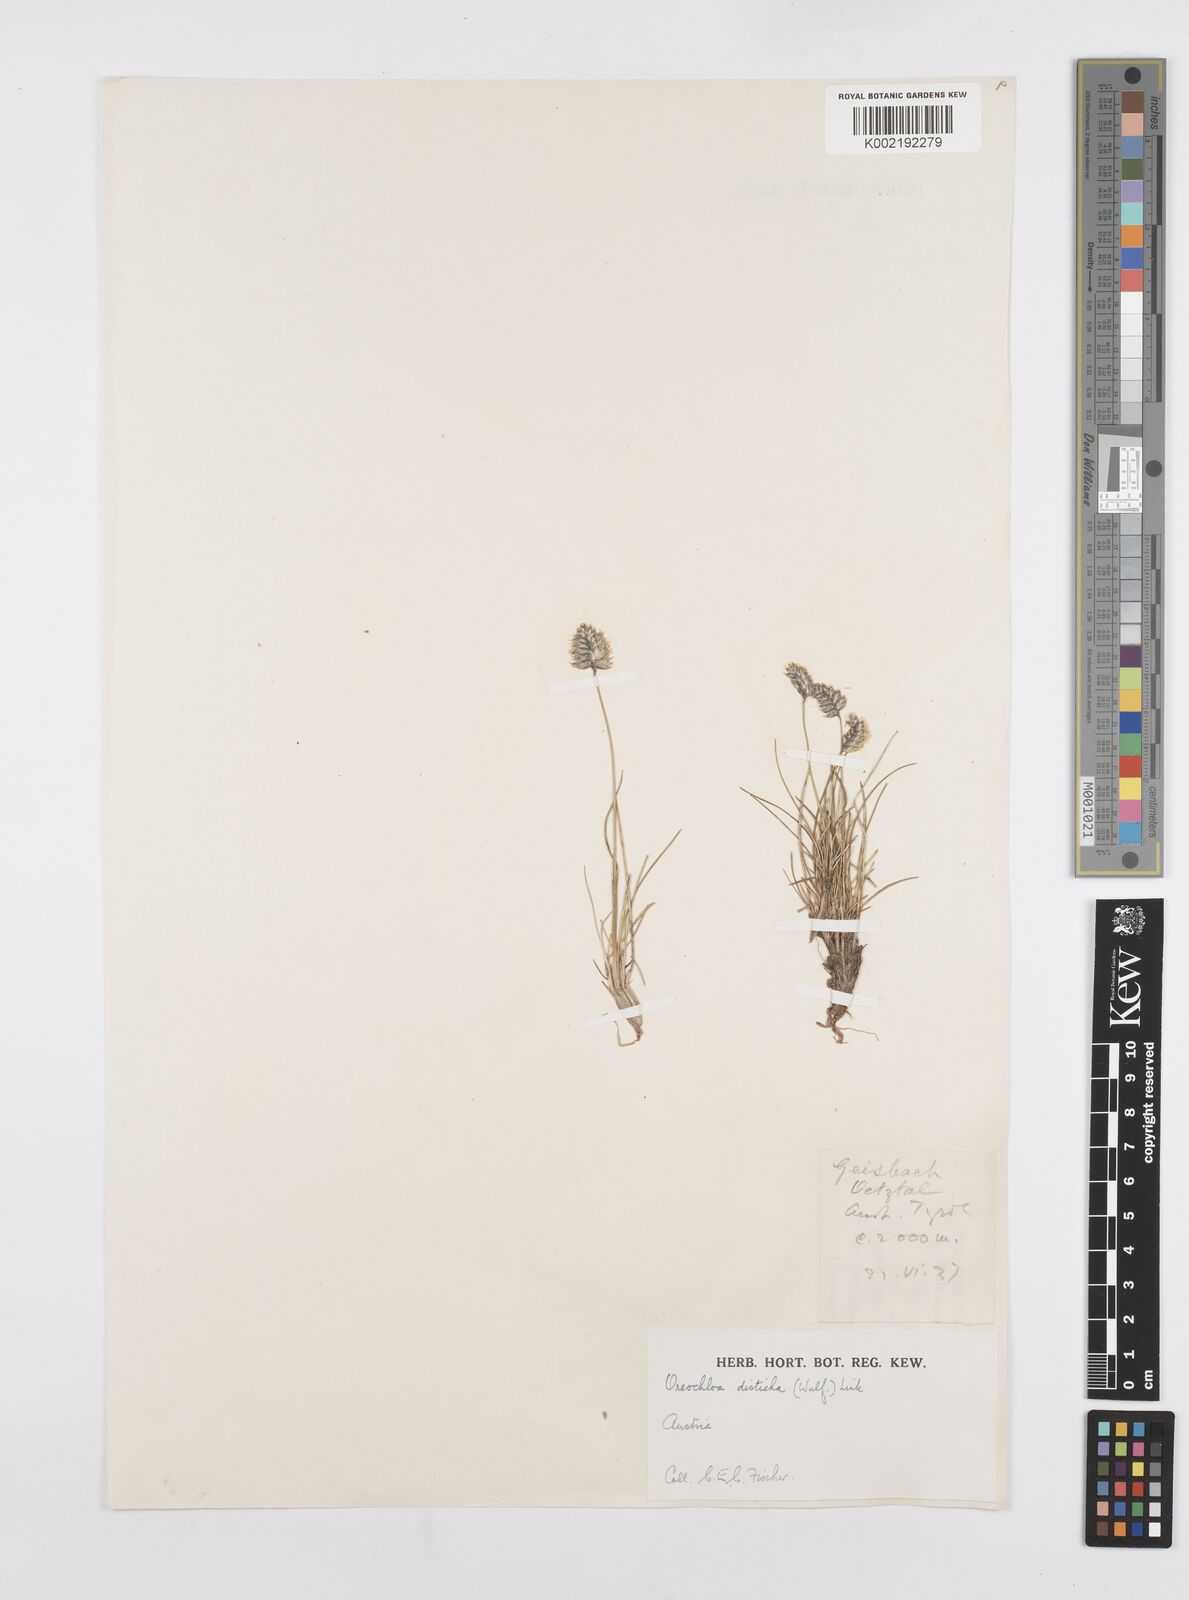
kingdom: Plantae
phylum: Tracheophyta
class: Liliopsida
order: Poales
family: Poaceae
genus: Oreochloa
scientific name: Oreochloa disticha
